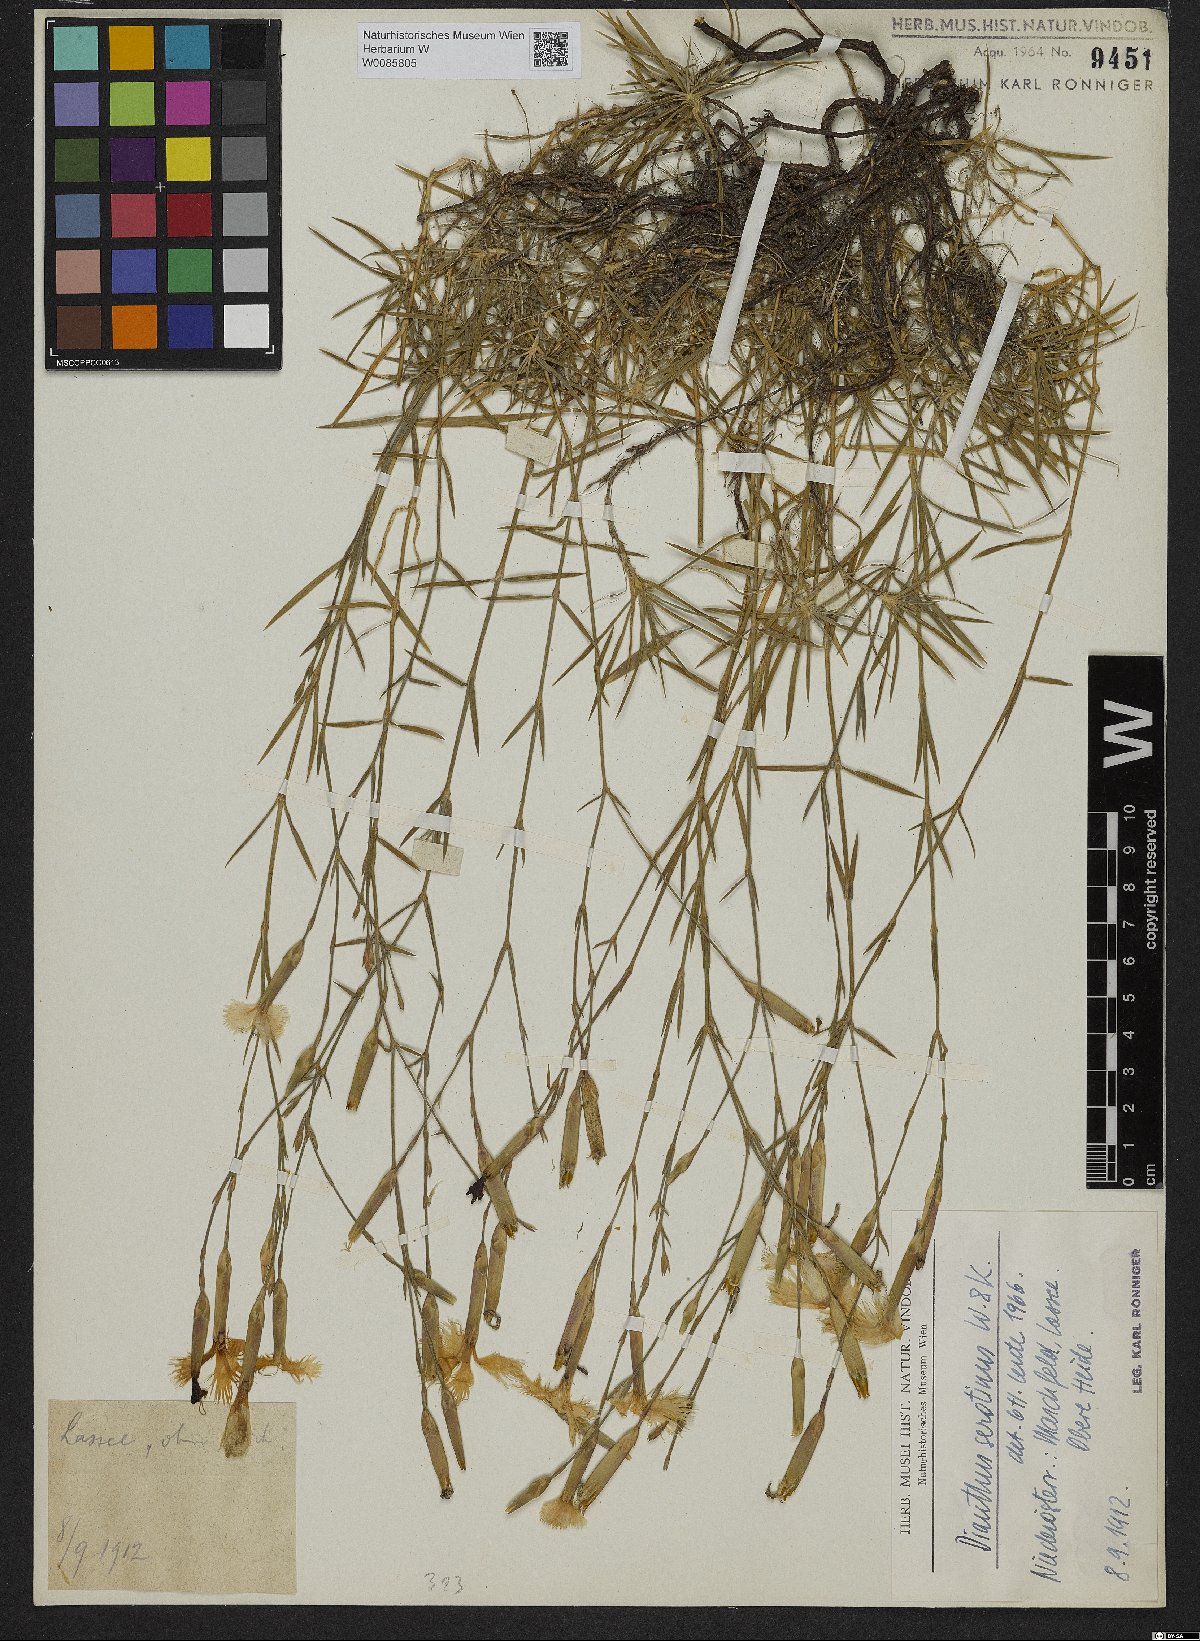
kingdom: Plantae
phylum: Tracheophyta
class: Magnoliopsida
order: Caryophyllales
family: Caryophyllaceae
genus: Dianthus
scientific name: Dianthus serotinus
